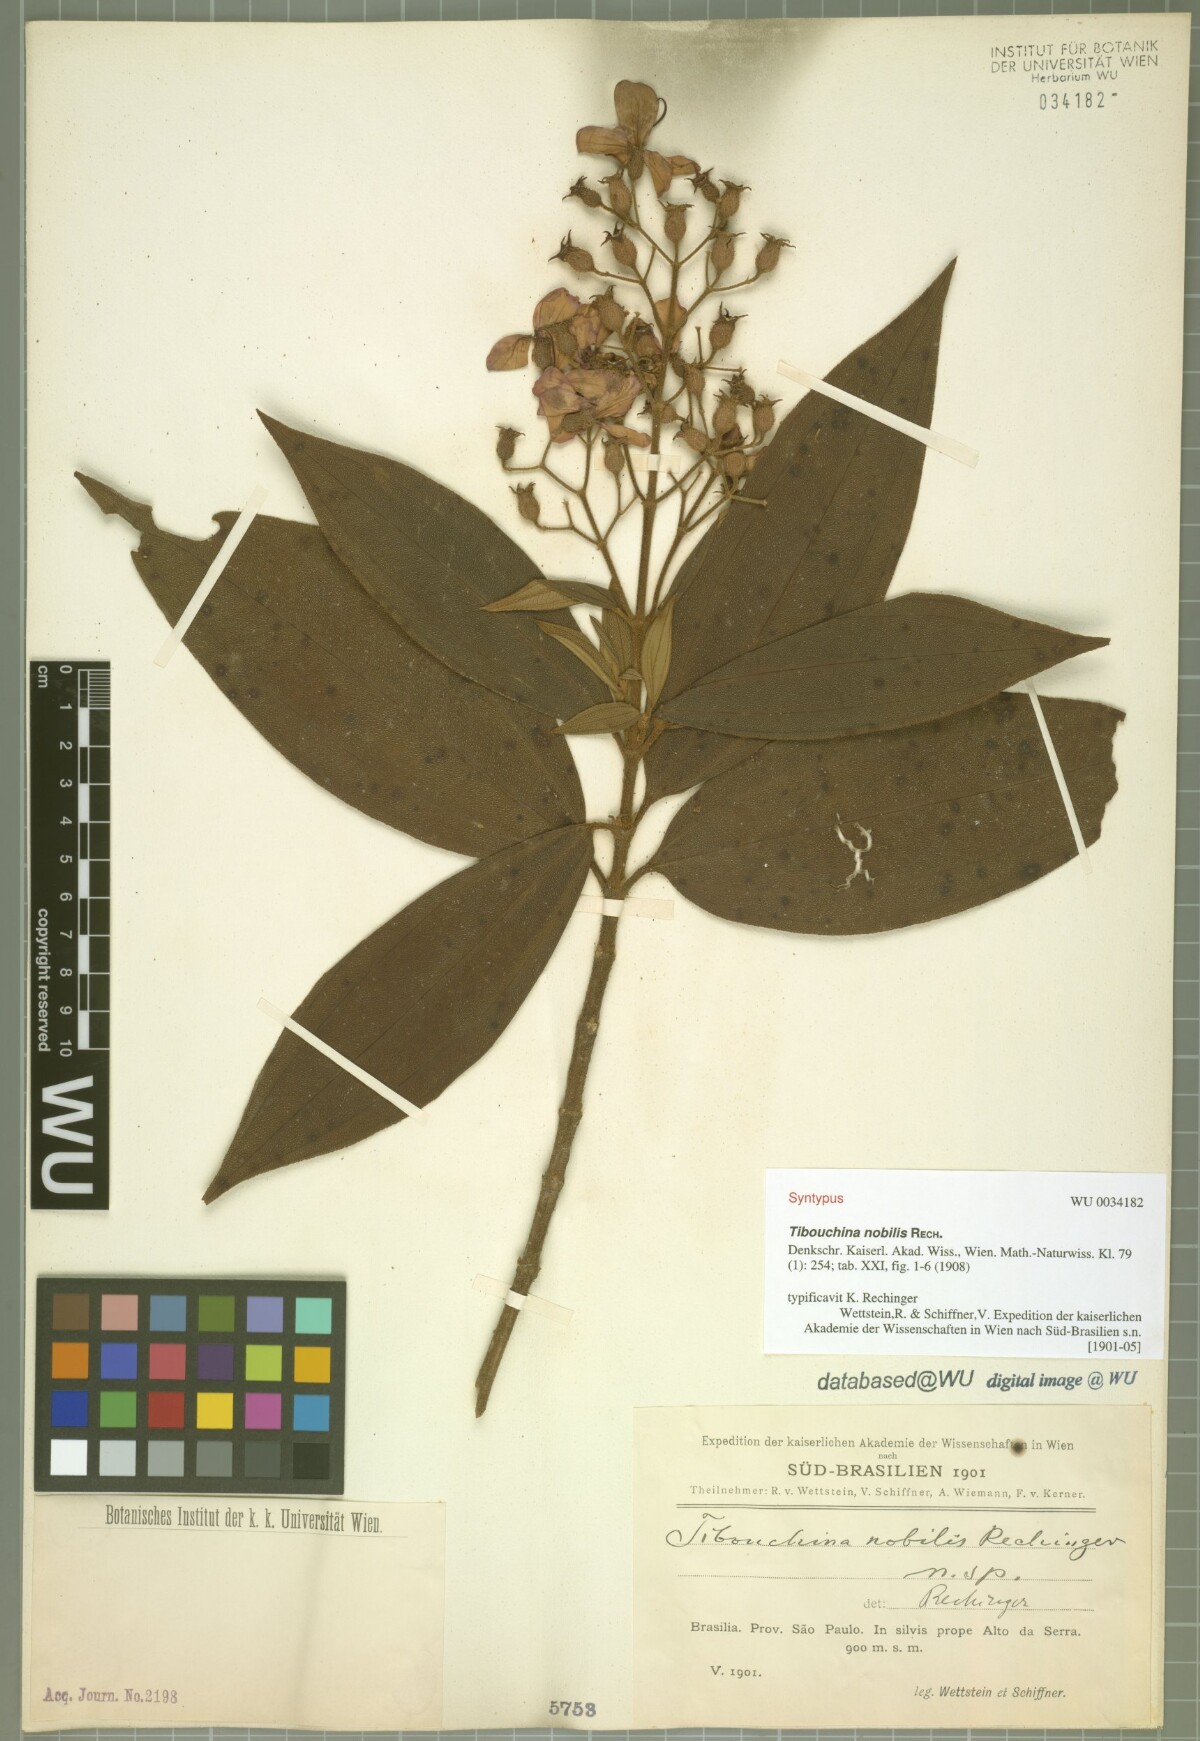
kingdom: Plantae
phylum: Tracheophyta
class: Magnoliopsida
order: Myrtales
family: Melastomataceae
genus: Pleroma
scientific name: Pleroma scaberrimum
